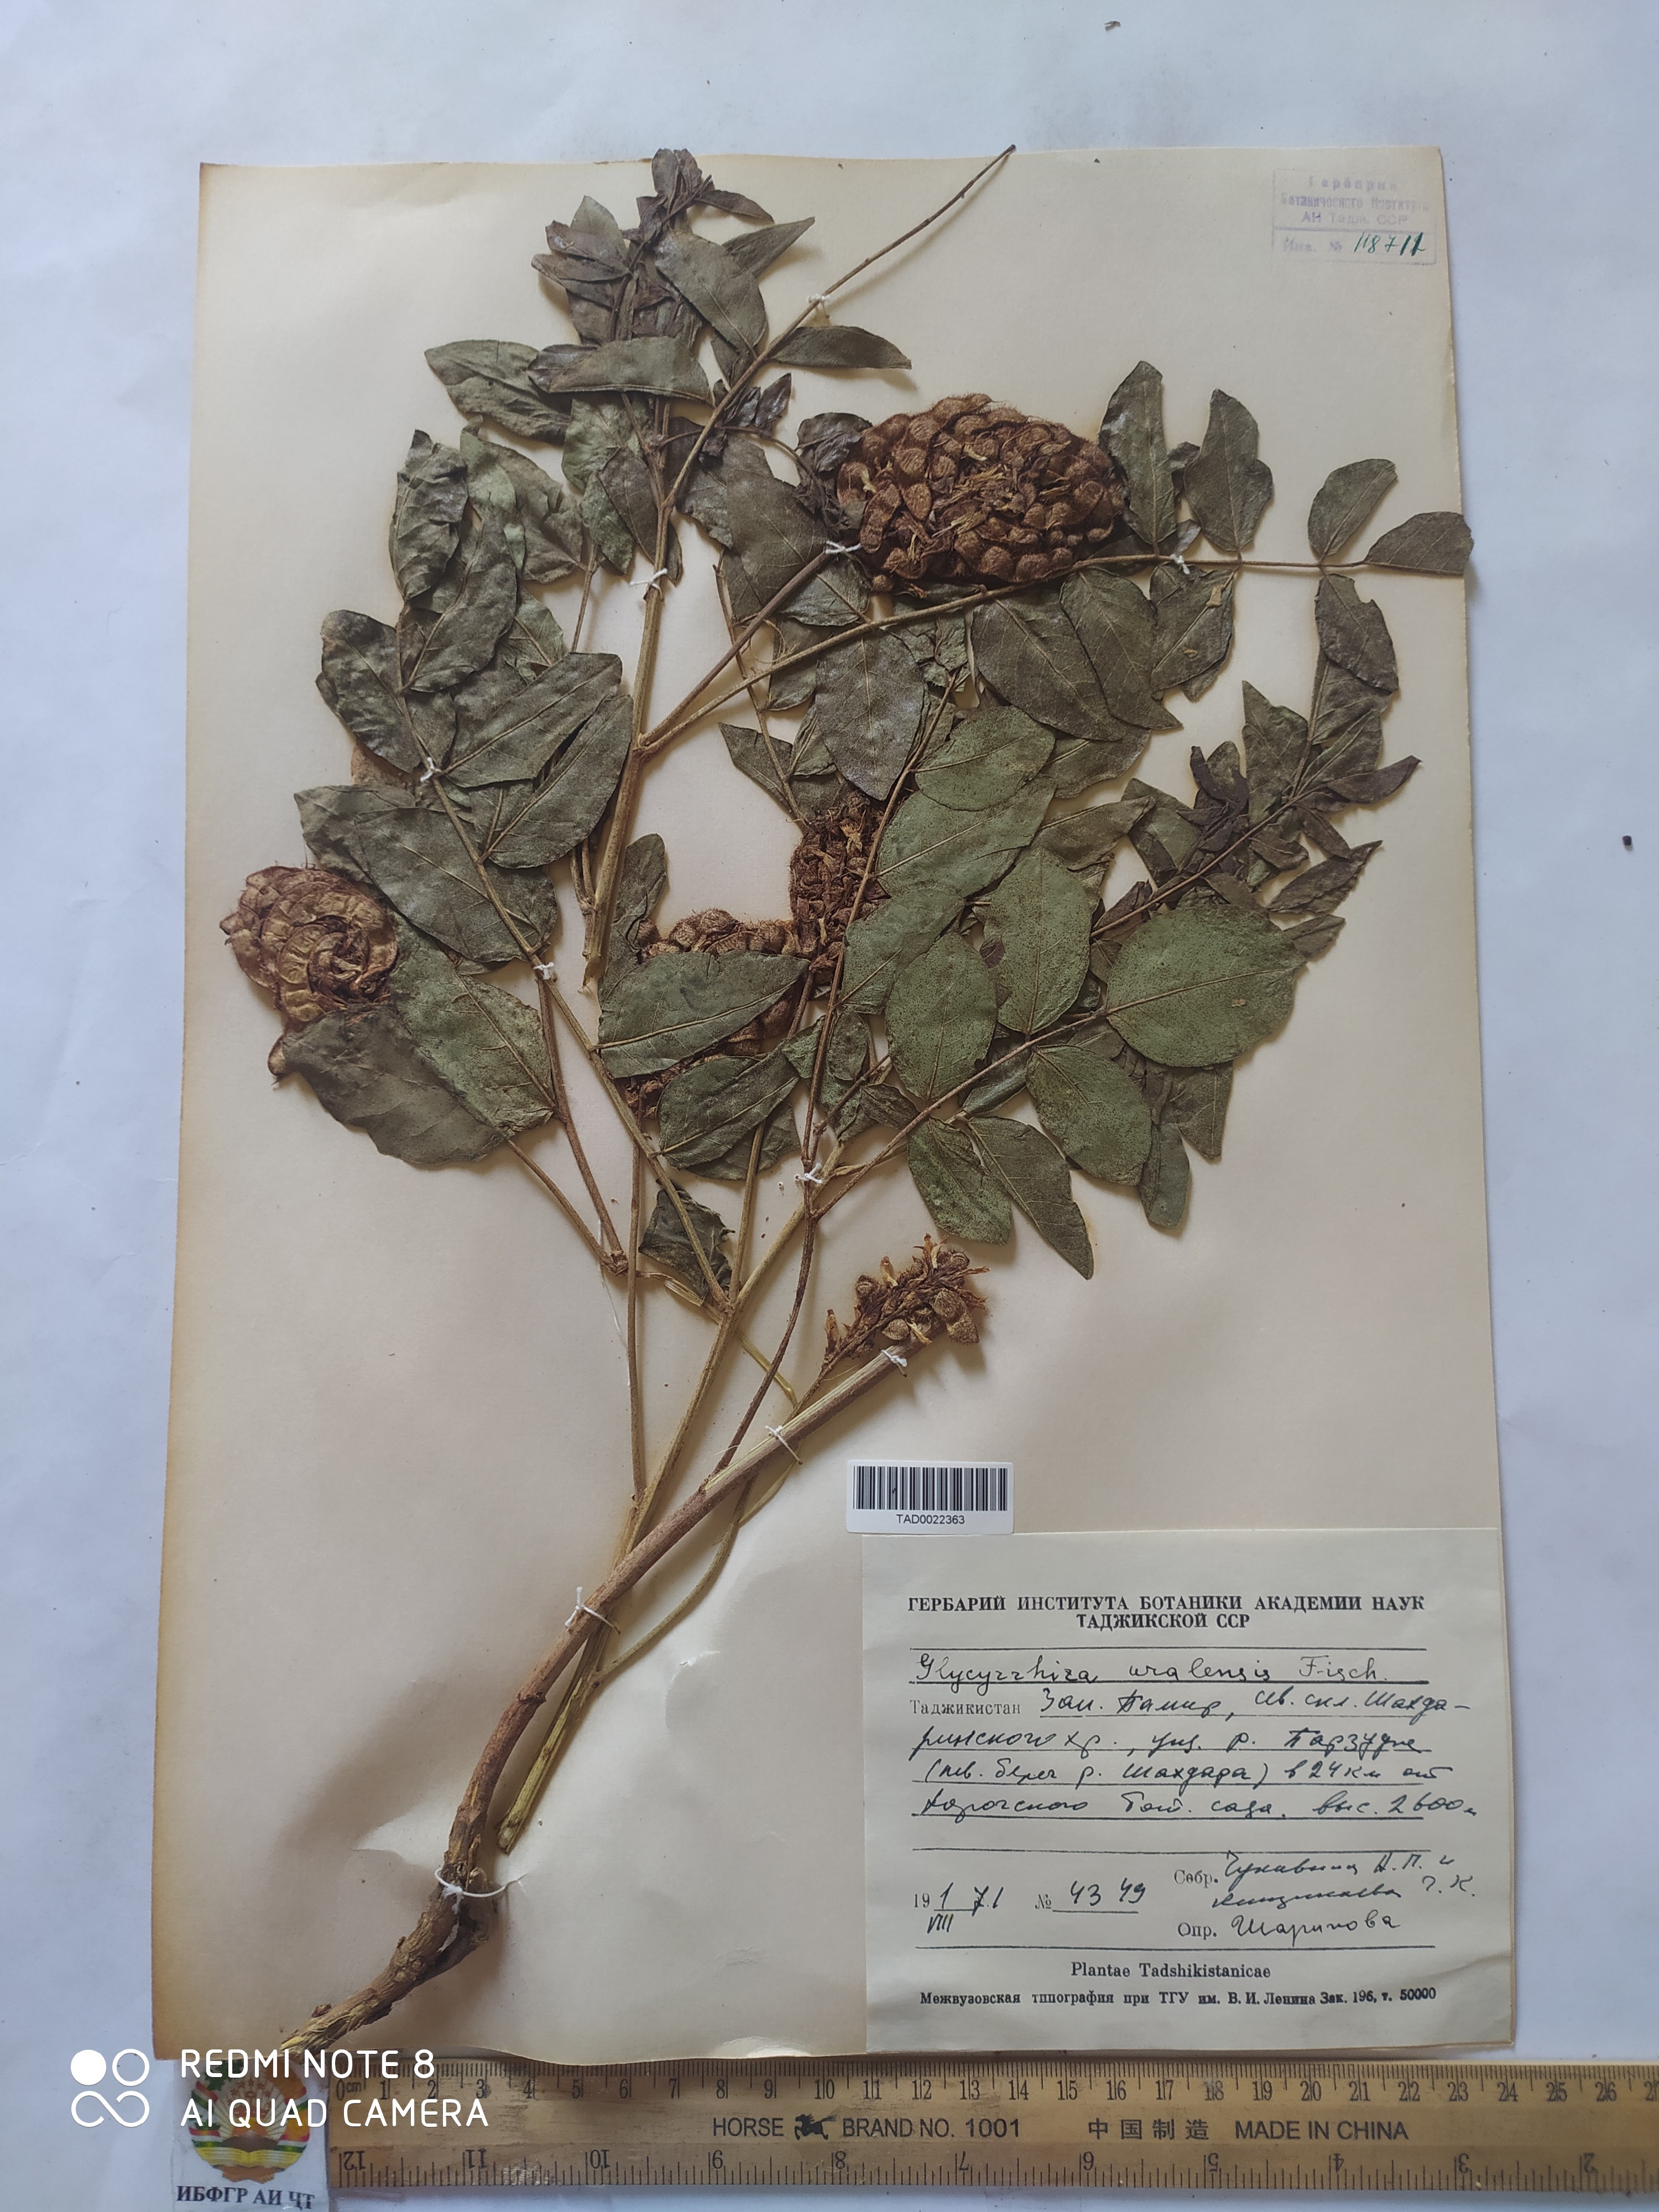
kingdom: Plantae
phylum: Tracheophyta
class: Magnoliopsida
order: Fabales
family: Fabaceae
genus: Glycyrrhiza
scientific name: Glycyrrhiza uralensis
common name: Chinese licorice
